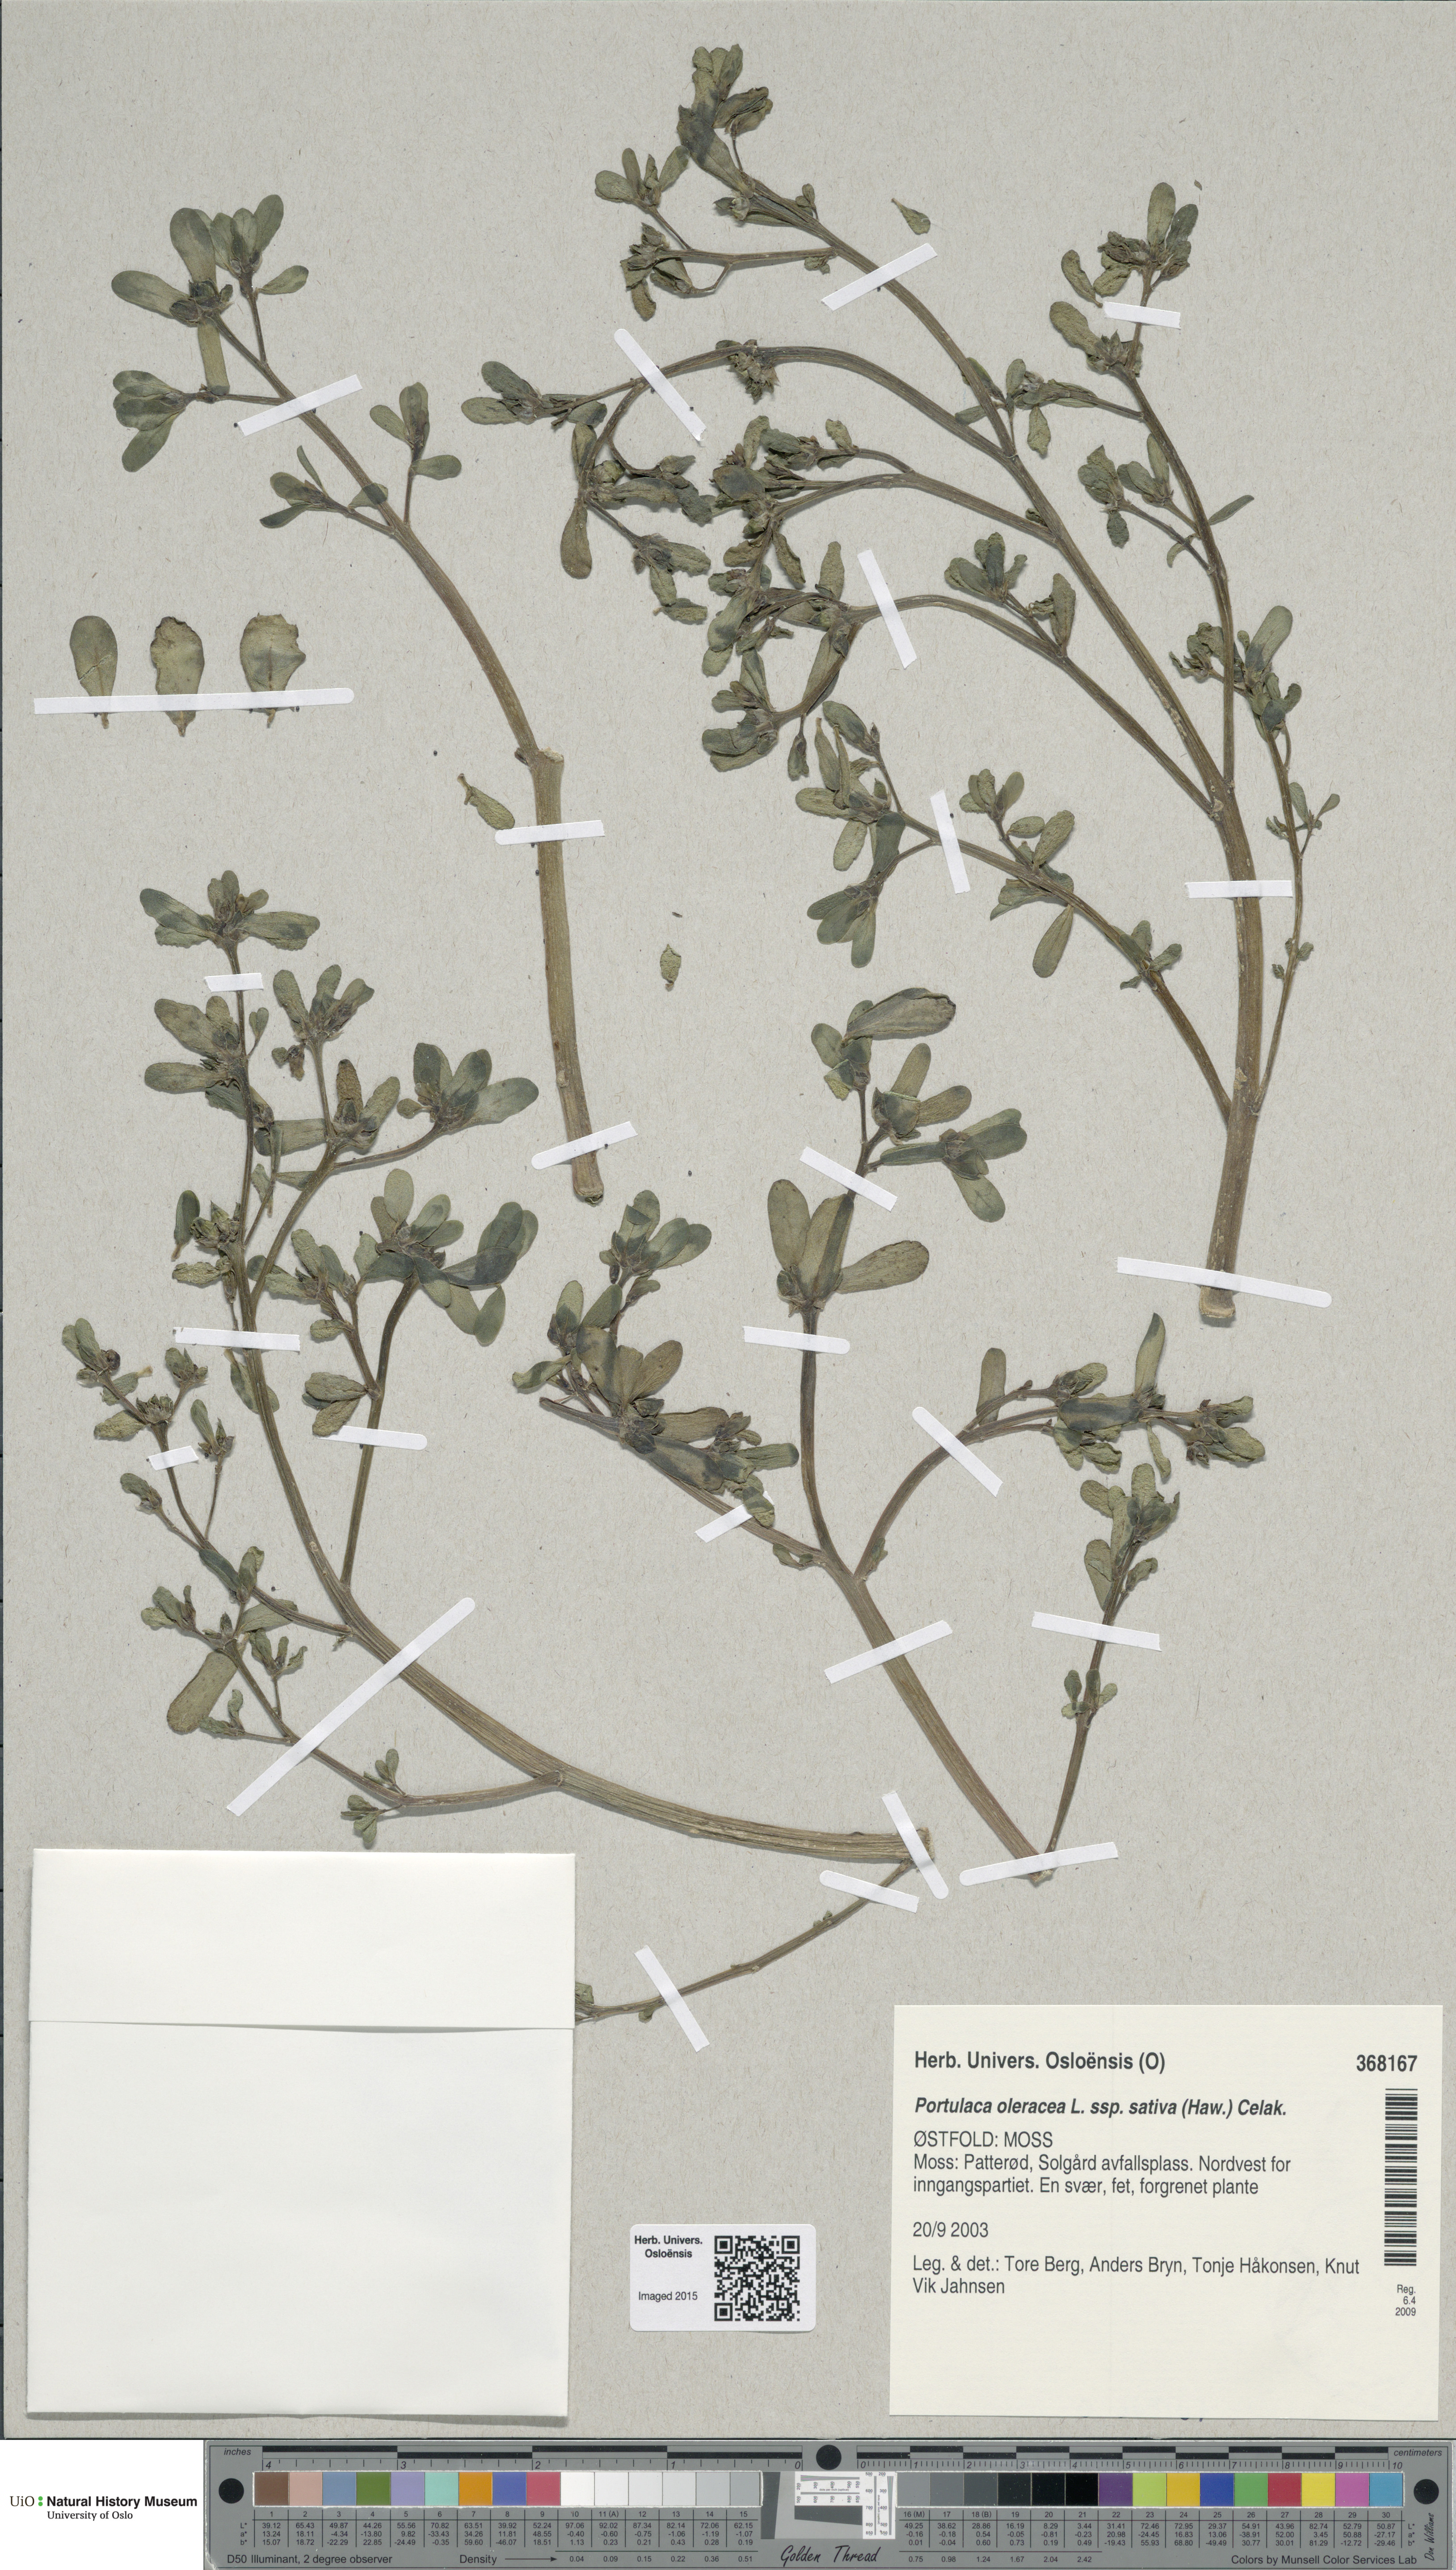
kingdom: Plantae
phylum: Tracheophyta
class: Magnoliopsida
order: Caryophyllales
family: Portulacaceae
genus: Portulaca
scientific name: Portulaca sativa
